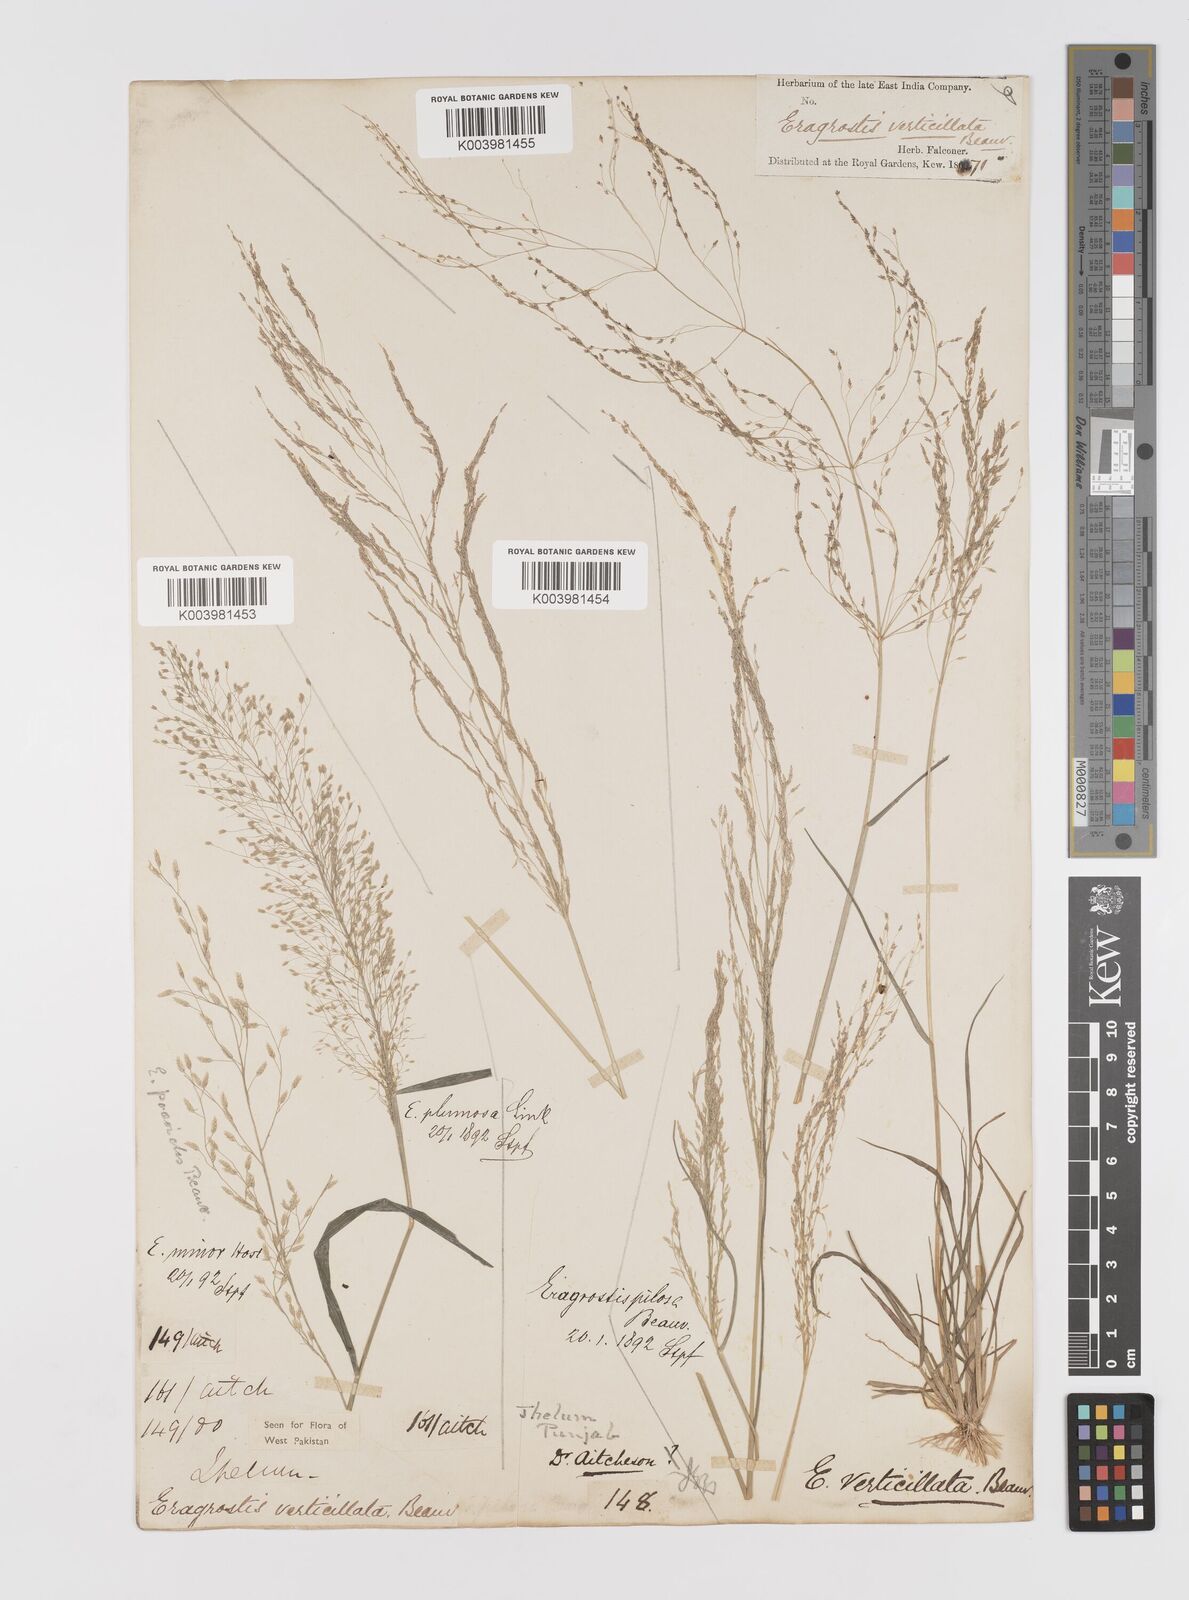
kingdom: Plantae
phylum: Tracheophyta
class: Liliopsida
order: Poales
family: Poaceae
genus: Eragrostis
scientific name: Eragrostis pilosa
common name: Indian lovegrass
